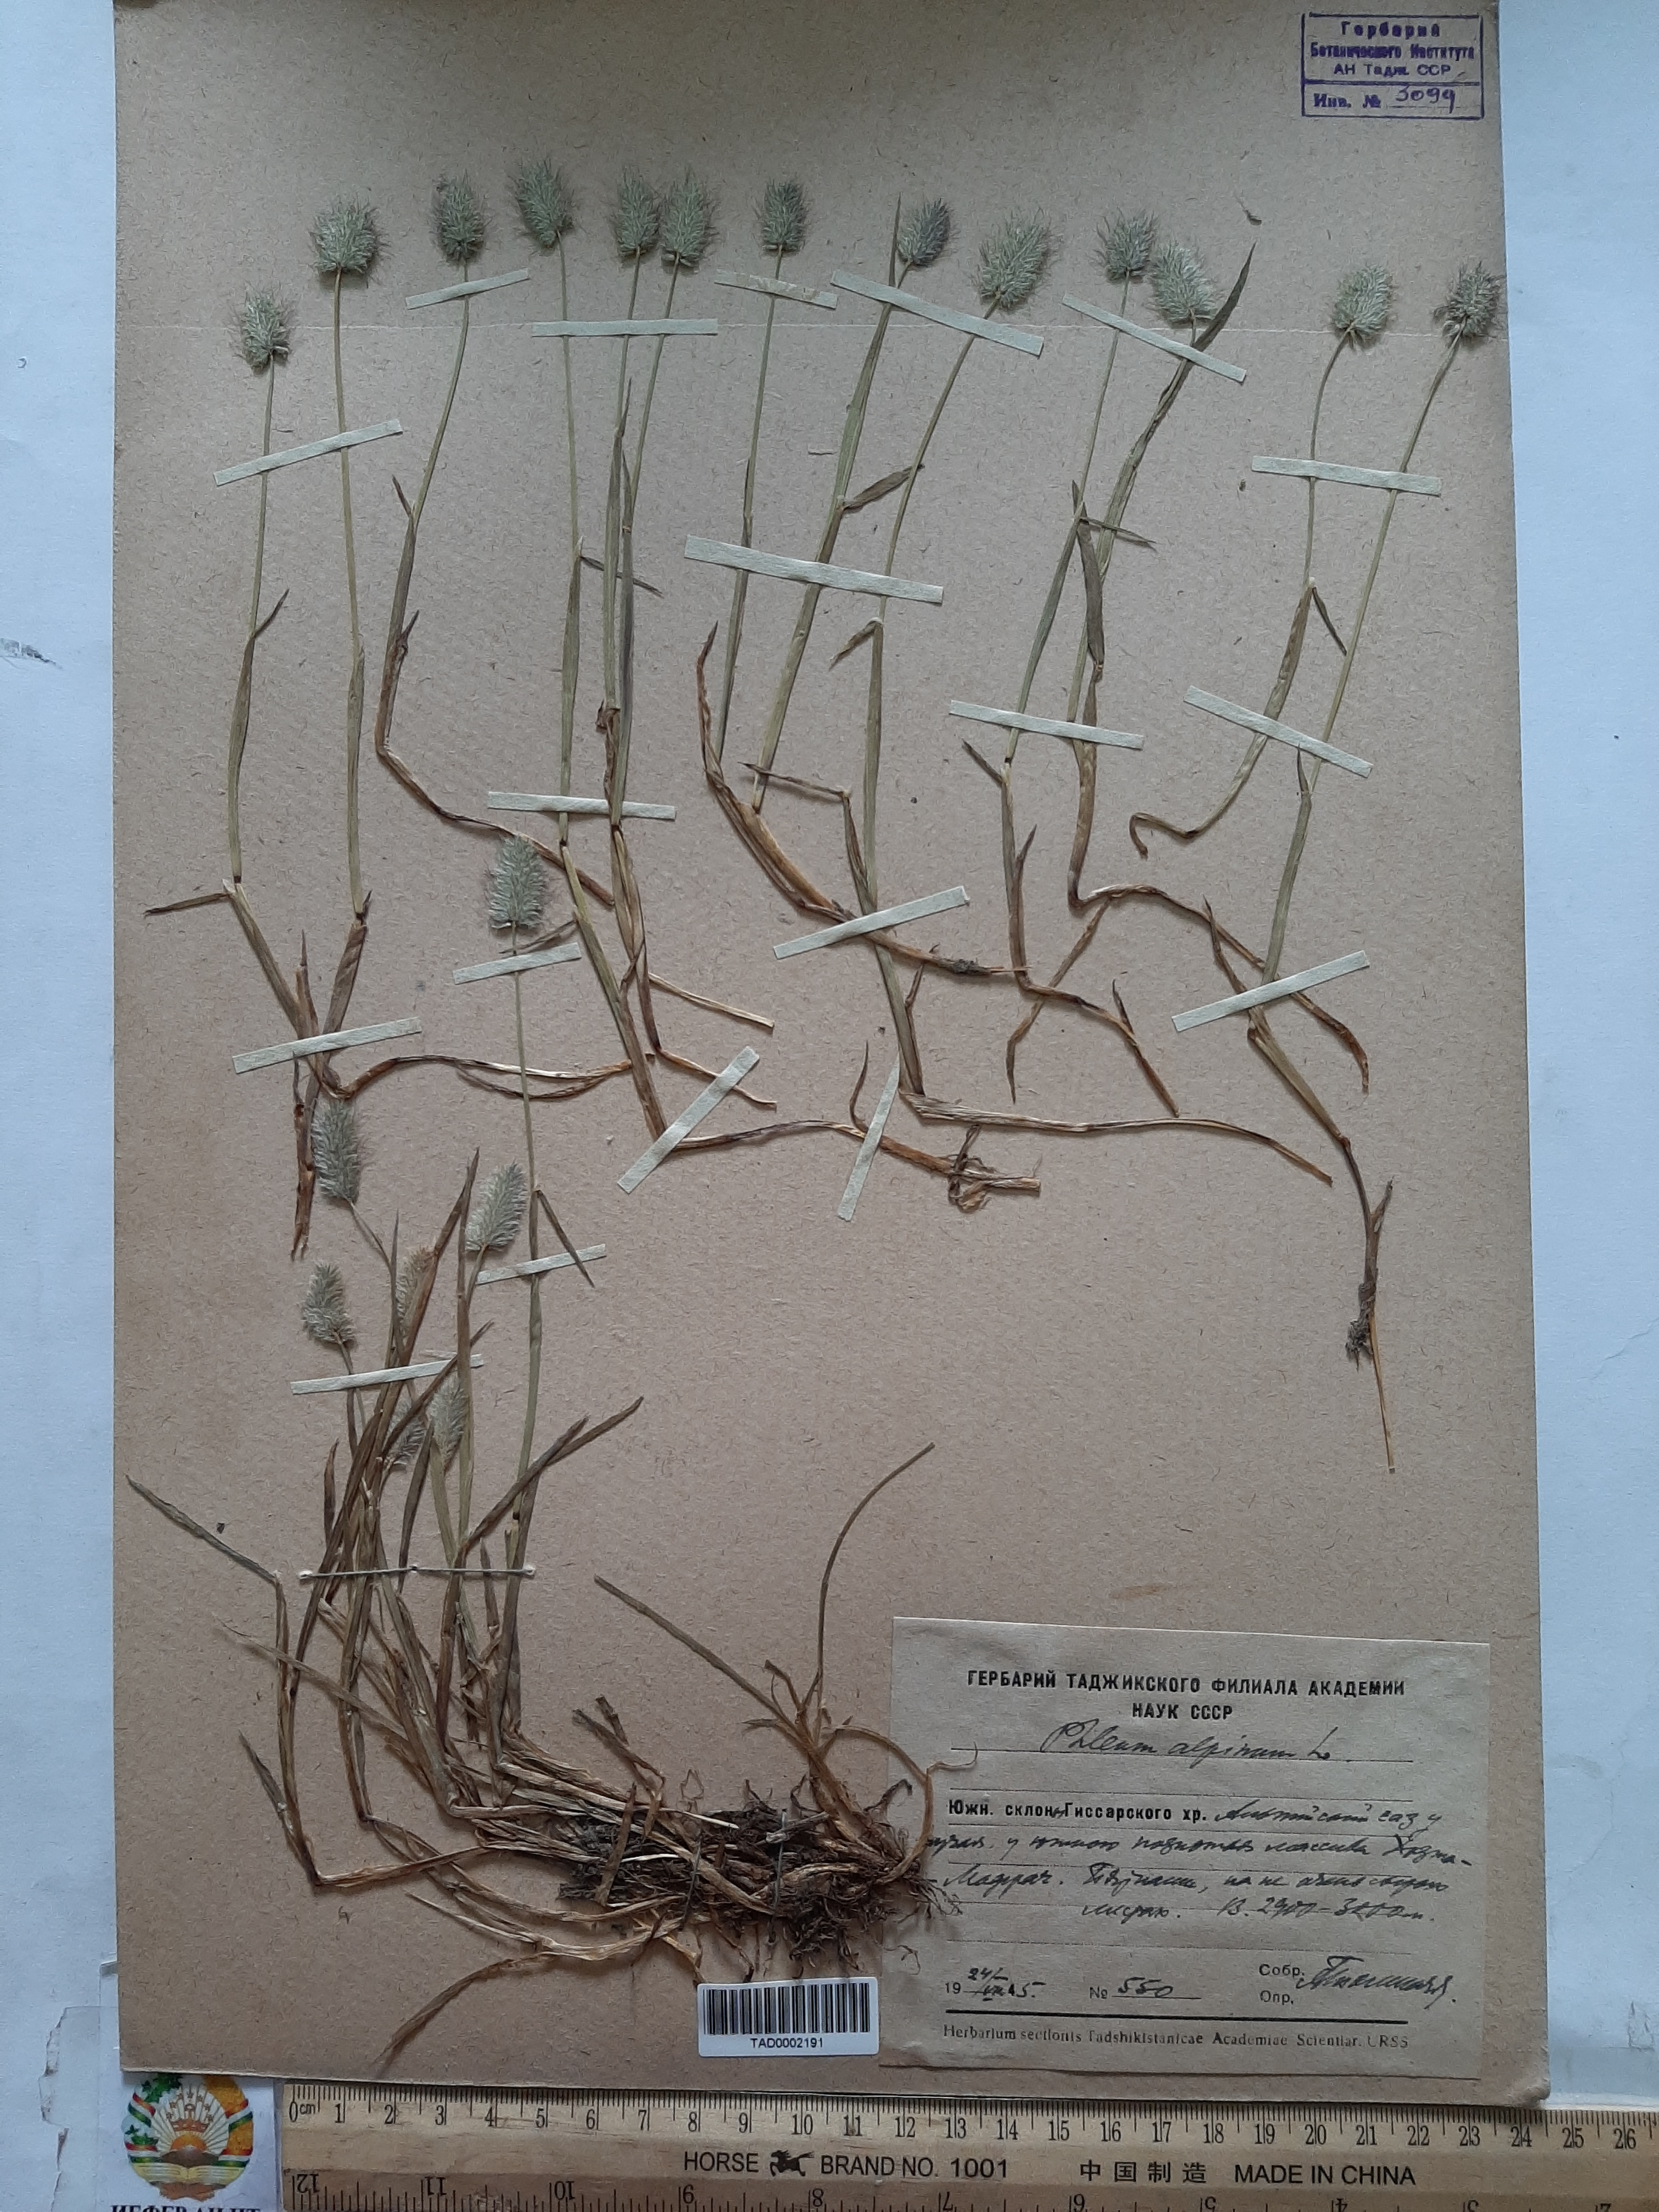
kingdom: Plantae
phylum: Tracheophyta
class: Liliopsida
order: Poales
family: Poaceae
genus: Phleum
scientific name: Phleum alpinum
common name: Alpine cat's-tail
